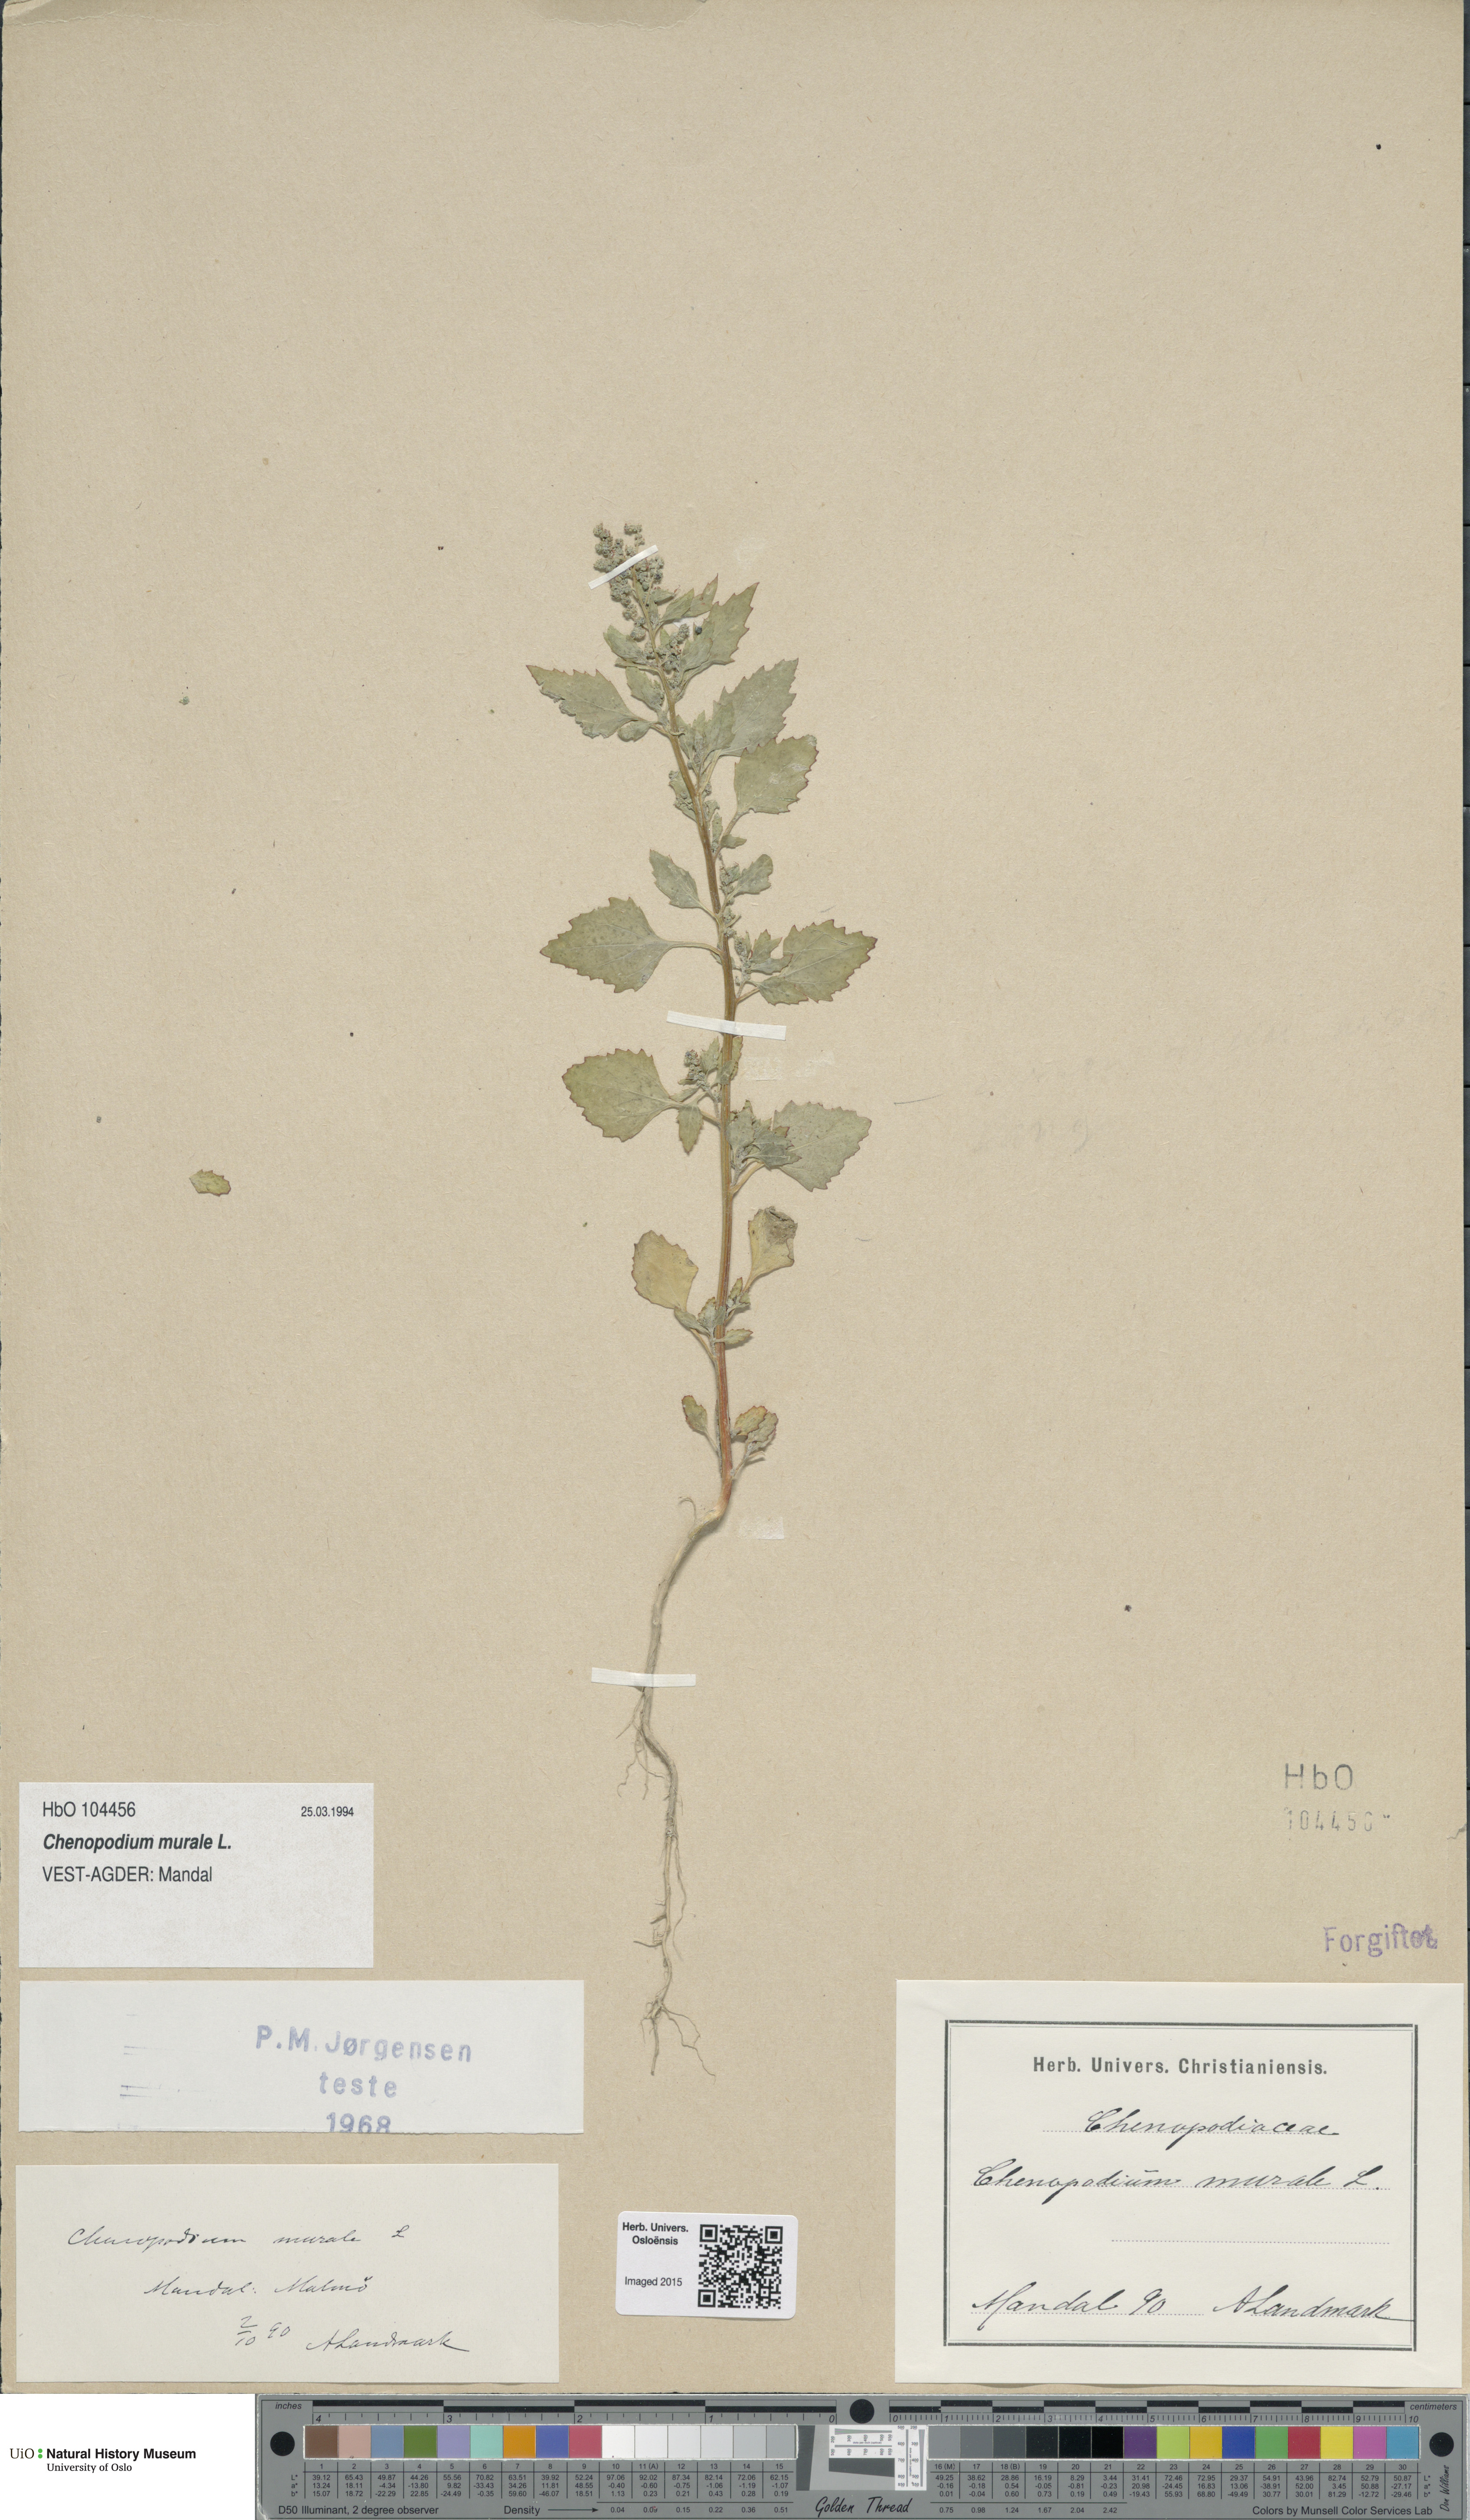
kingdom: Plantae
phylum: Tracheophyta
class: Magnoliopsida
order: Caryophyllales
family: Amaranthaceae
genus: Chenopodiastrum
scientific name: Chenopodiastrum murale
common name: Sowbane
